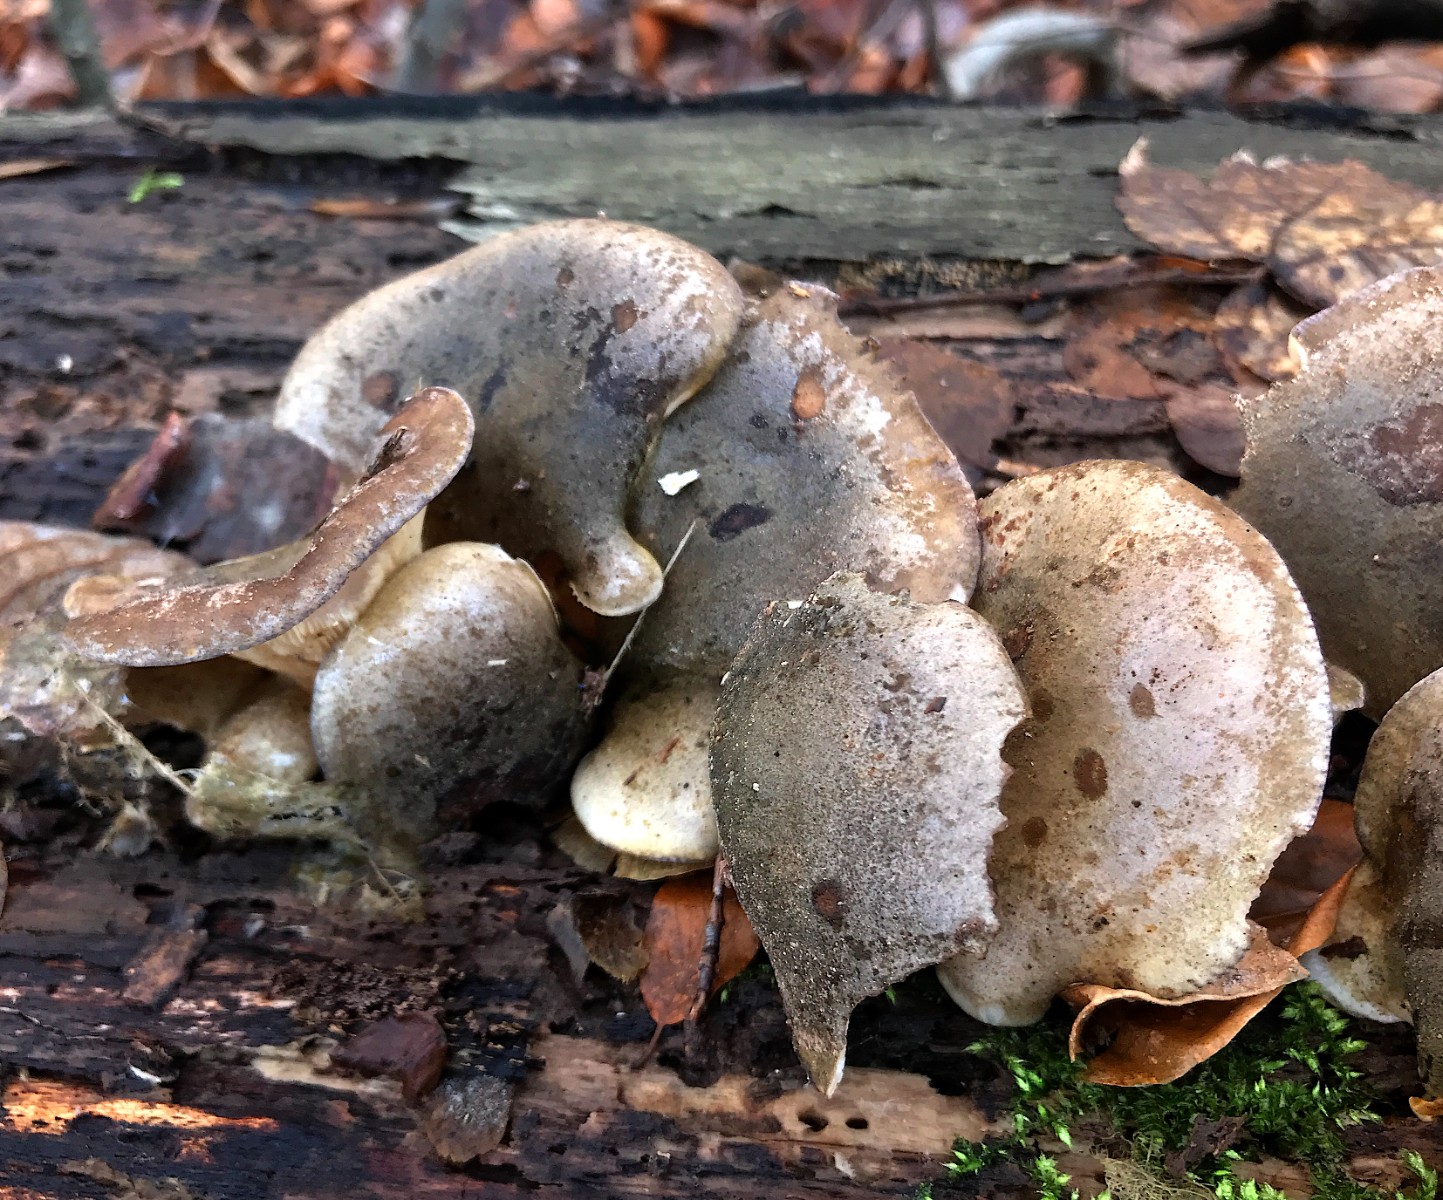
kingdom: Fungi
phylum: Basidiomycota
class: Agaricomycetes
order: Agaricales
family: Sarcomyxaceae
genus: Sarcomyxa
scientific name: Sarcomyxa serotina
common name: gummihat
